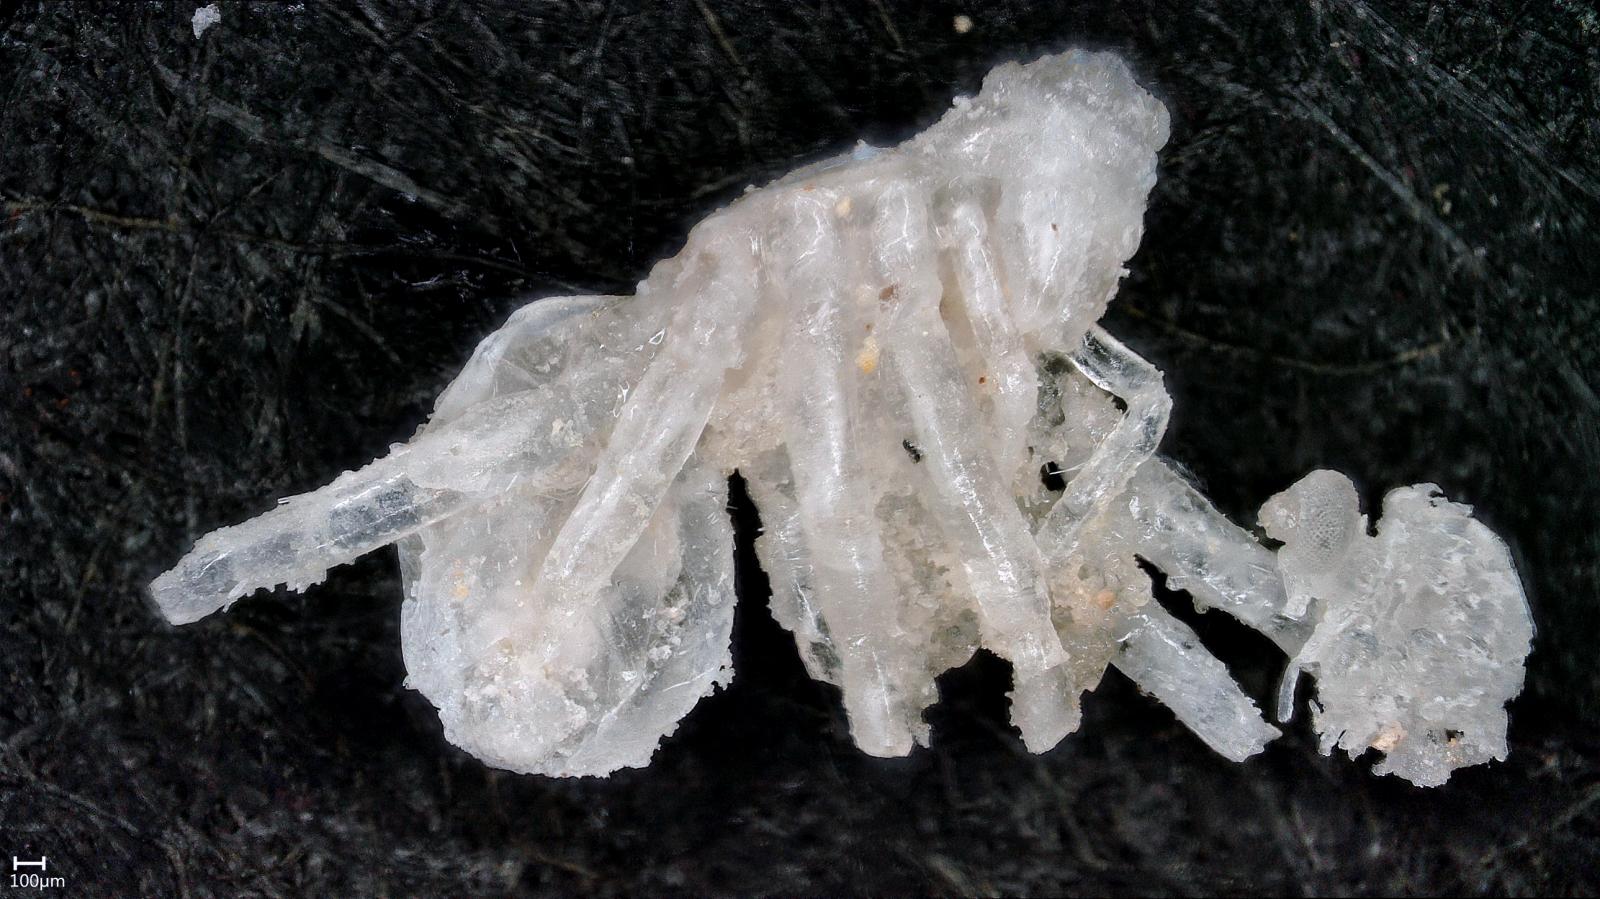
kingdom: Animalia
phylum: Arthropoda
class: Arachnida
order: Araneae
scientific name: Araneae
